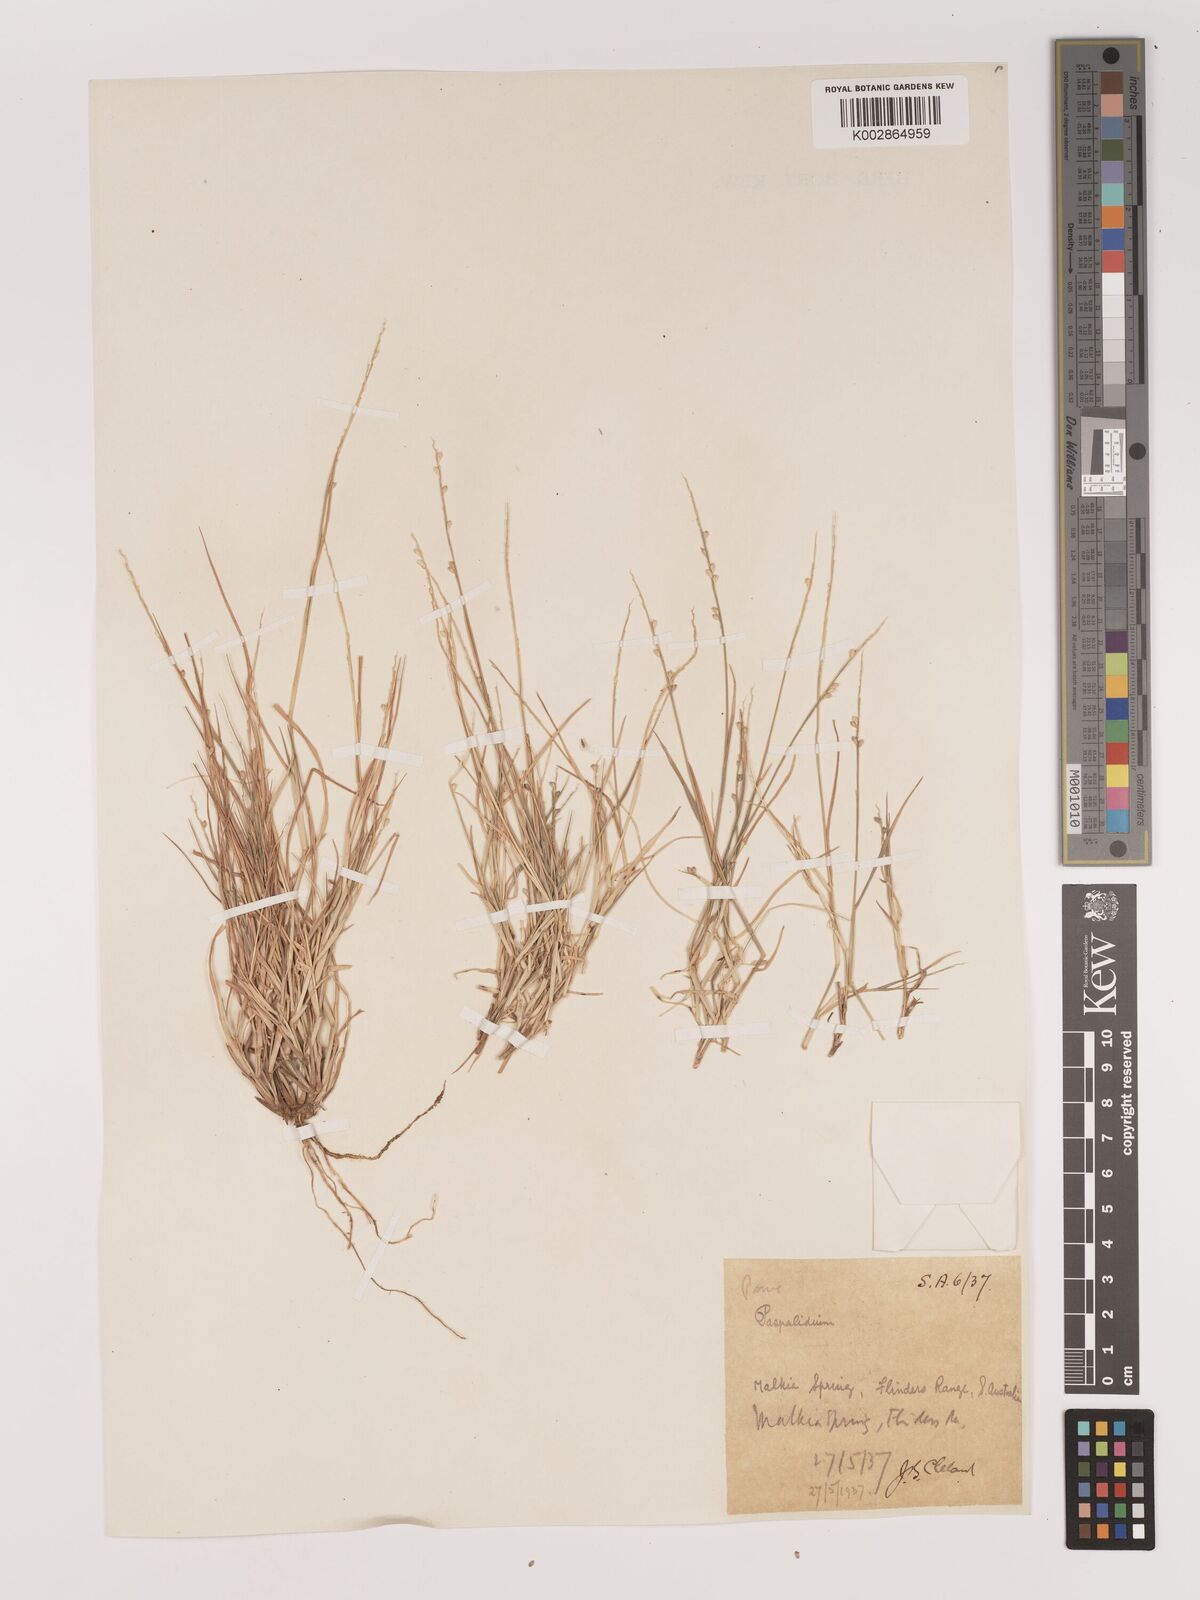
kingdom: Plantae
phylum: Tracheophyta
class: Liliopsida
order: Poales
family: Poaceae
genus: Setaria
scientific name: Setaria
